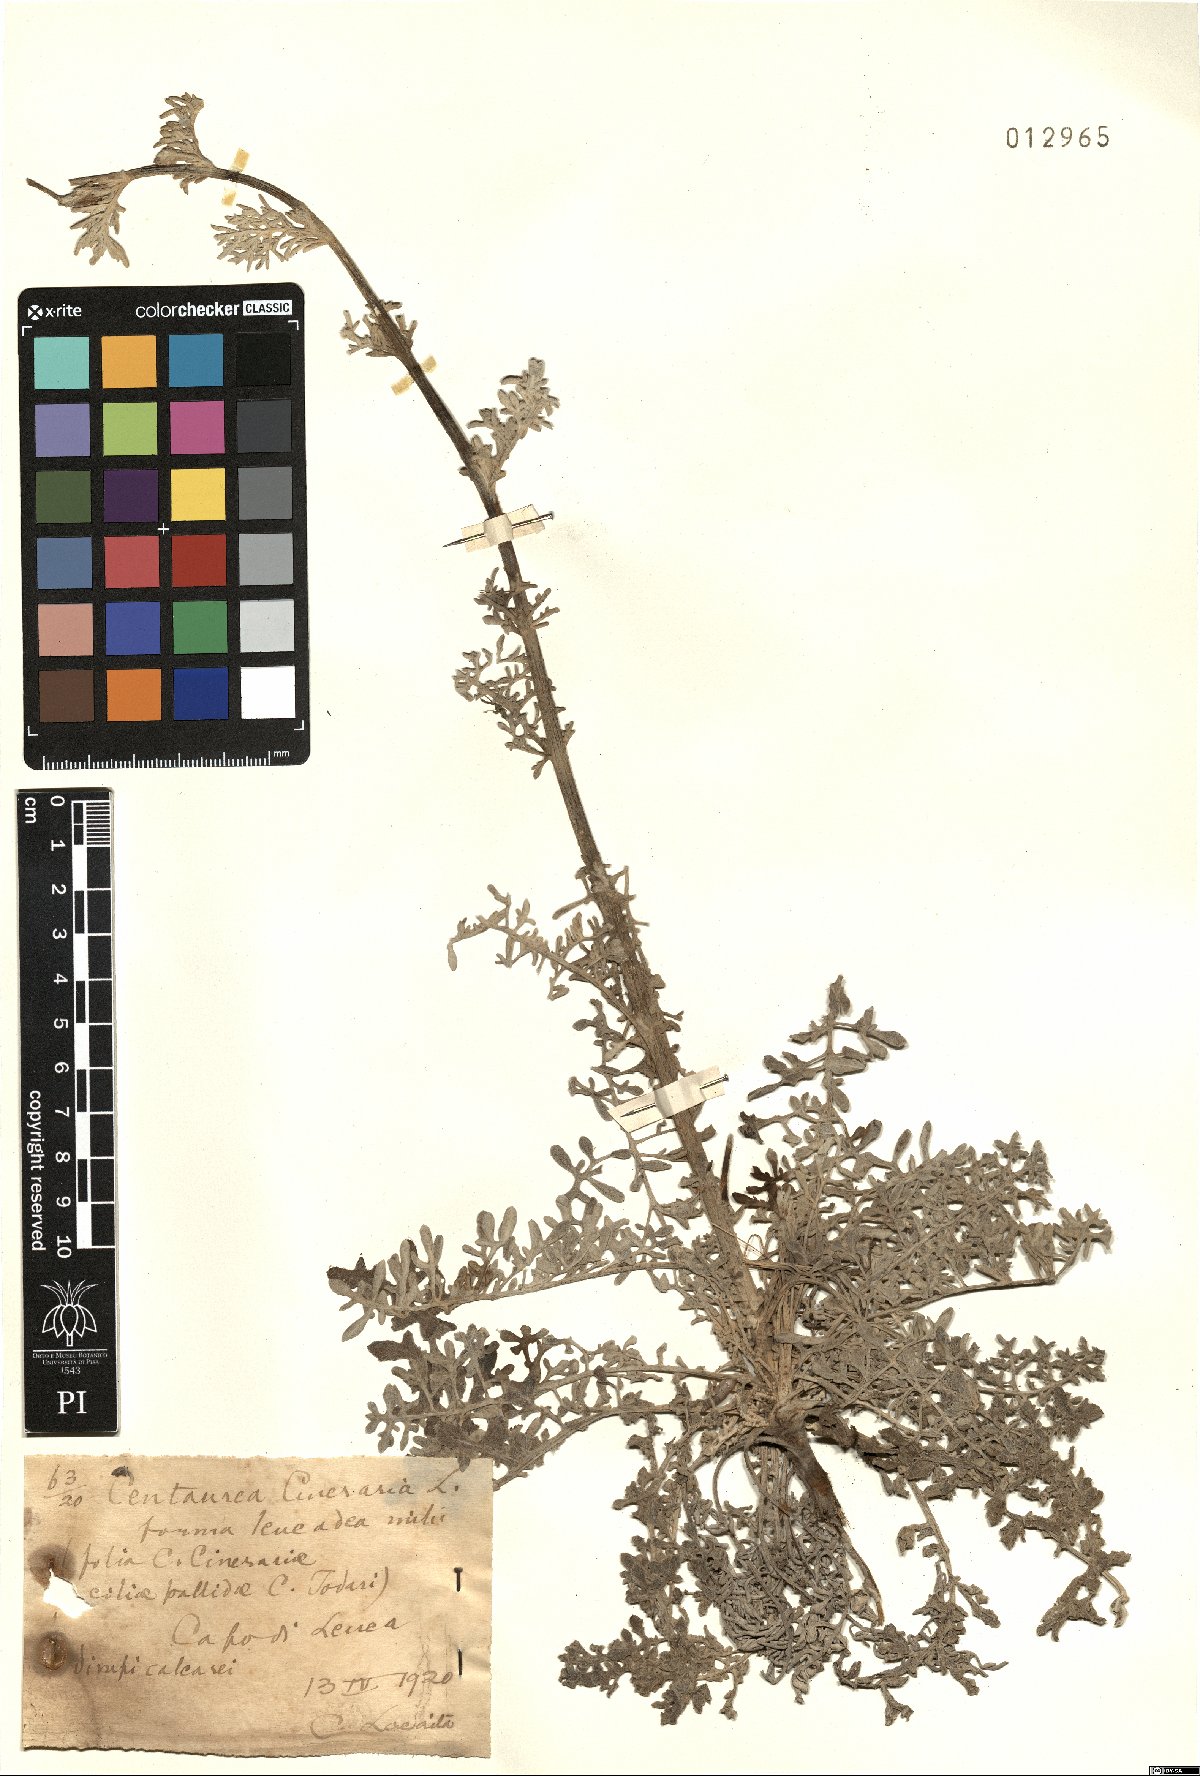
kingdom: Plantae
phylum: Tracheophyta
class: Magnoliopsida
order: Asterales
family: Asteraceae
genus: Centaurea
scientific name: Centaurea cineraria
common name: Dusty miller
